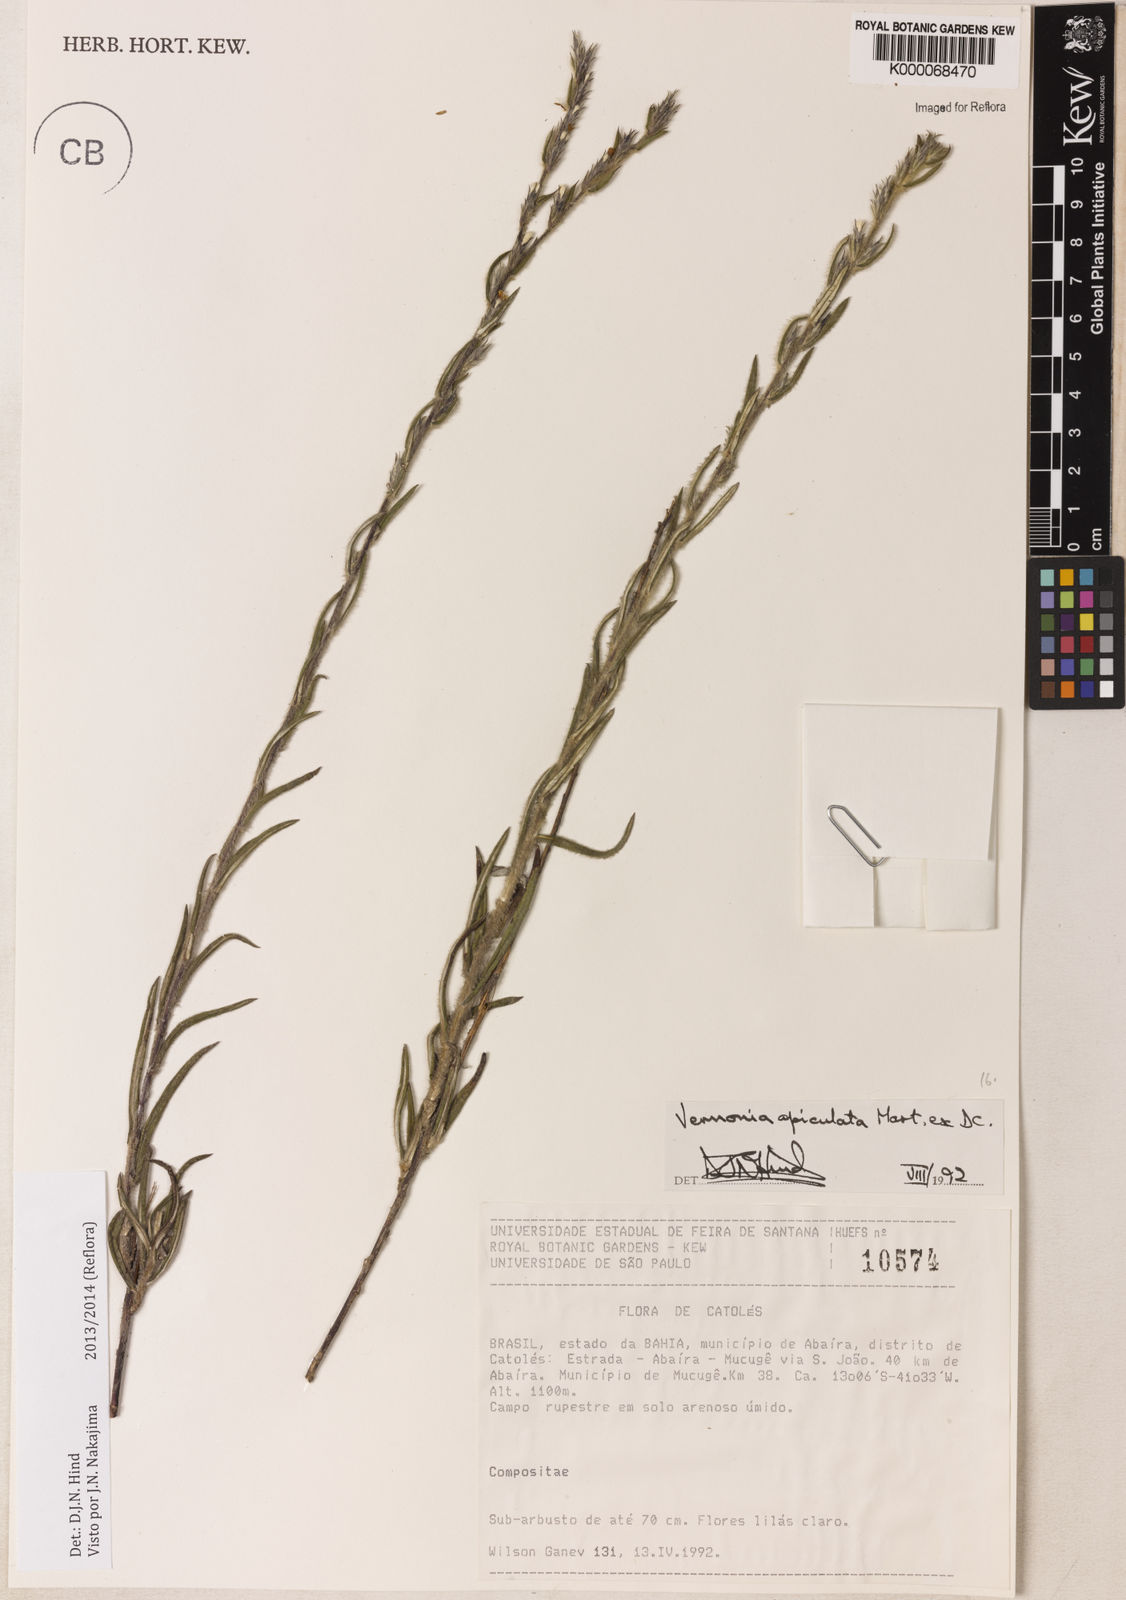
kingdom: Plantae
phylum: Tracheophyta
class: Magnoliopsida
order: Asterales
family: Asteraceae
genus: Stenocephalum
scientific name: Stenocephalum apiculatum
